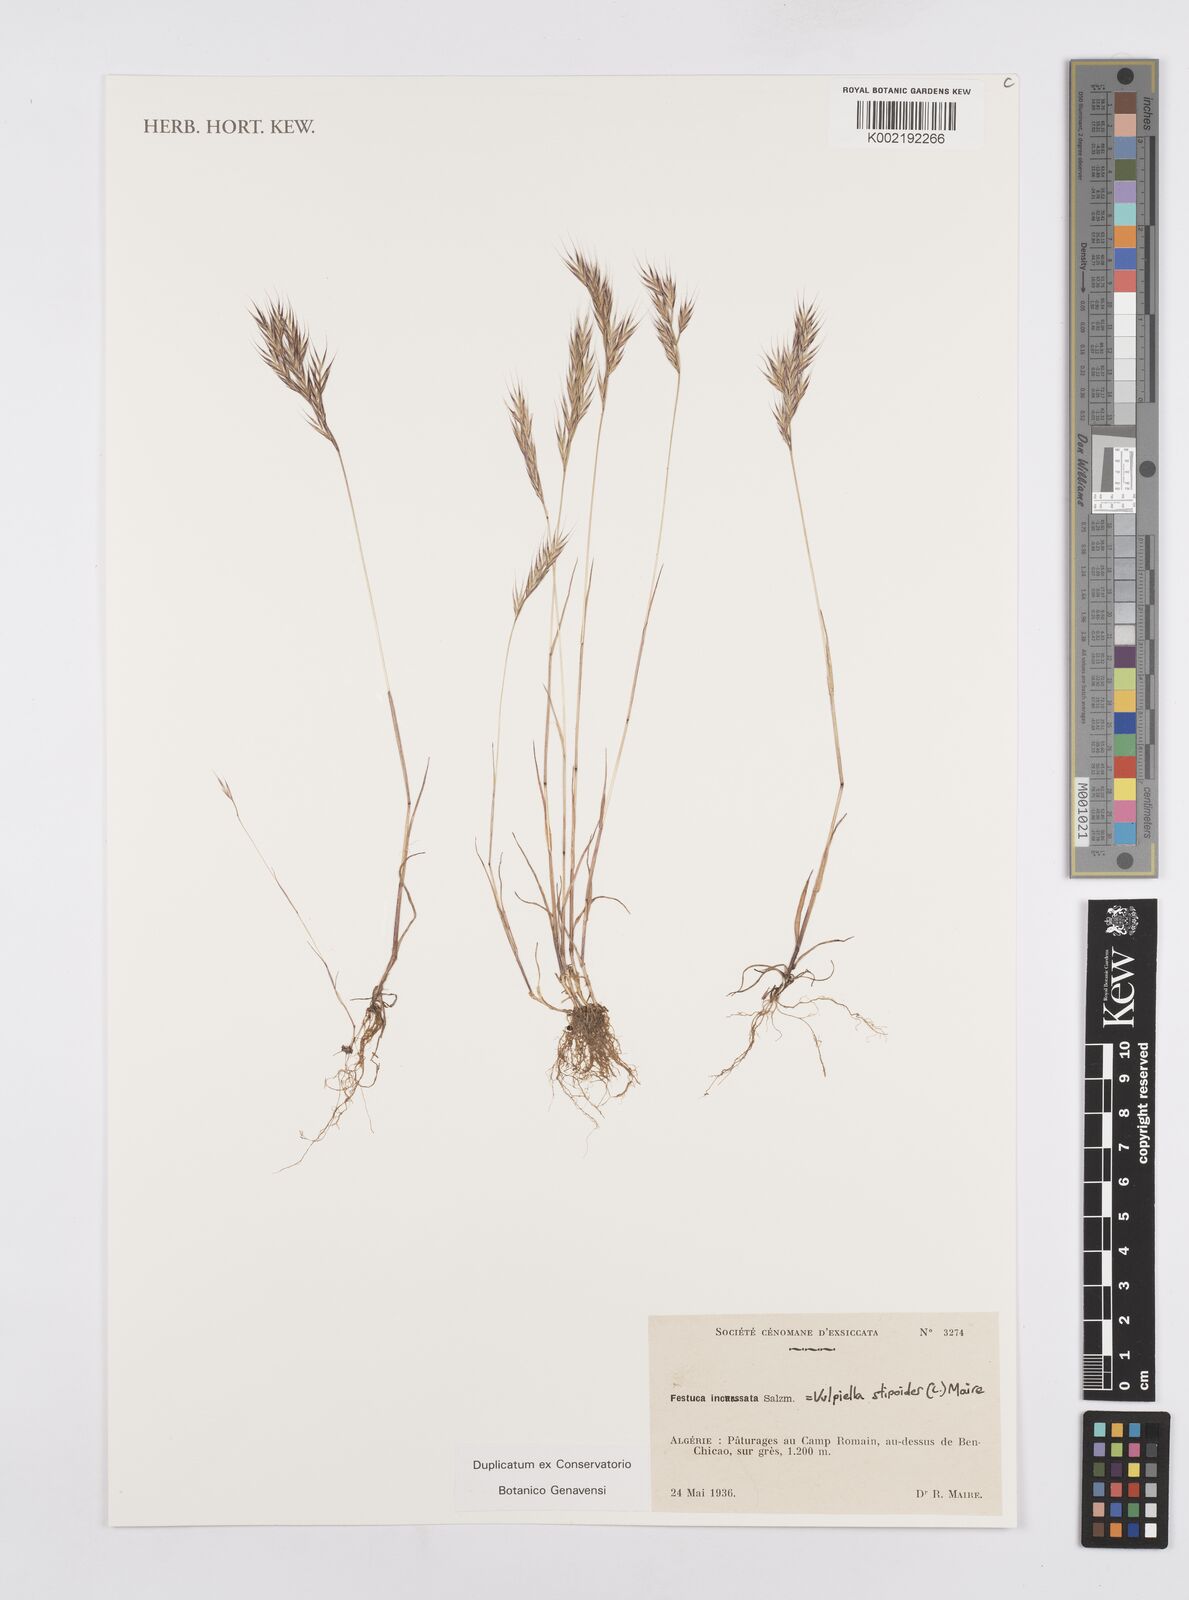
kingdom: Plantae
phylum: Tracheophyta
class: Liliopsida
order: Poales
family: Poaceae
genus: Vulpiella
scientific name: Vulpiella stipoides
